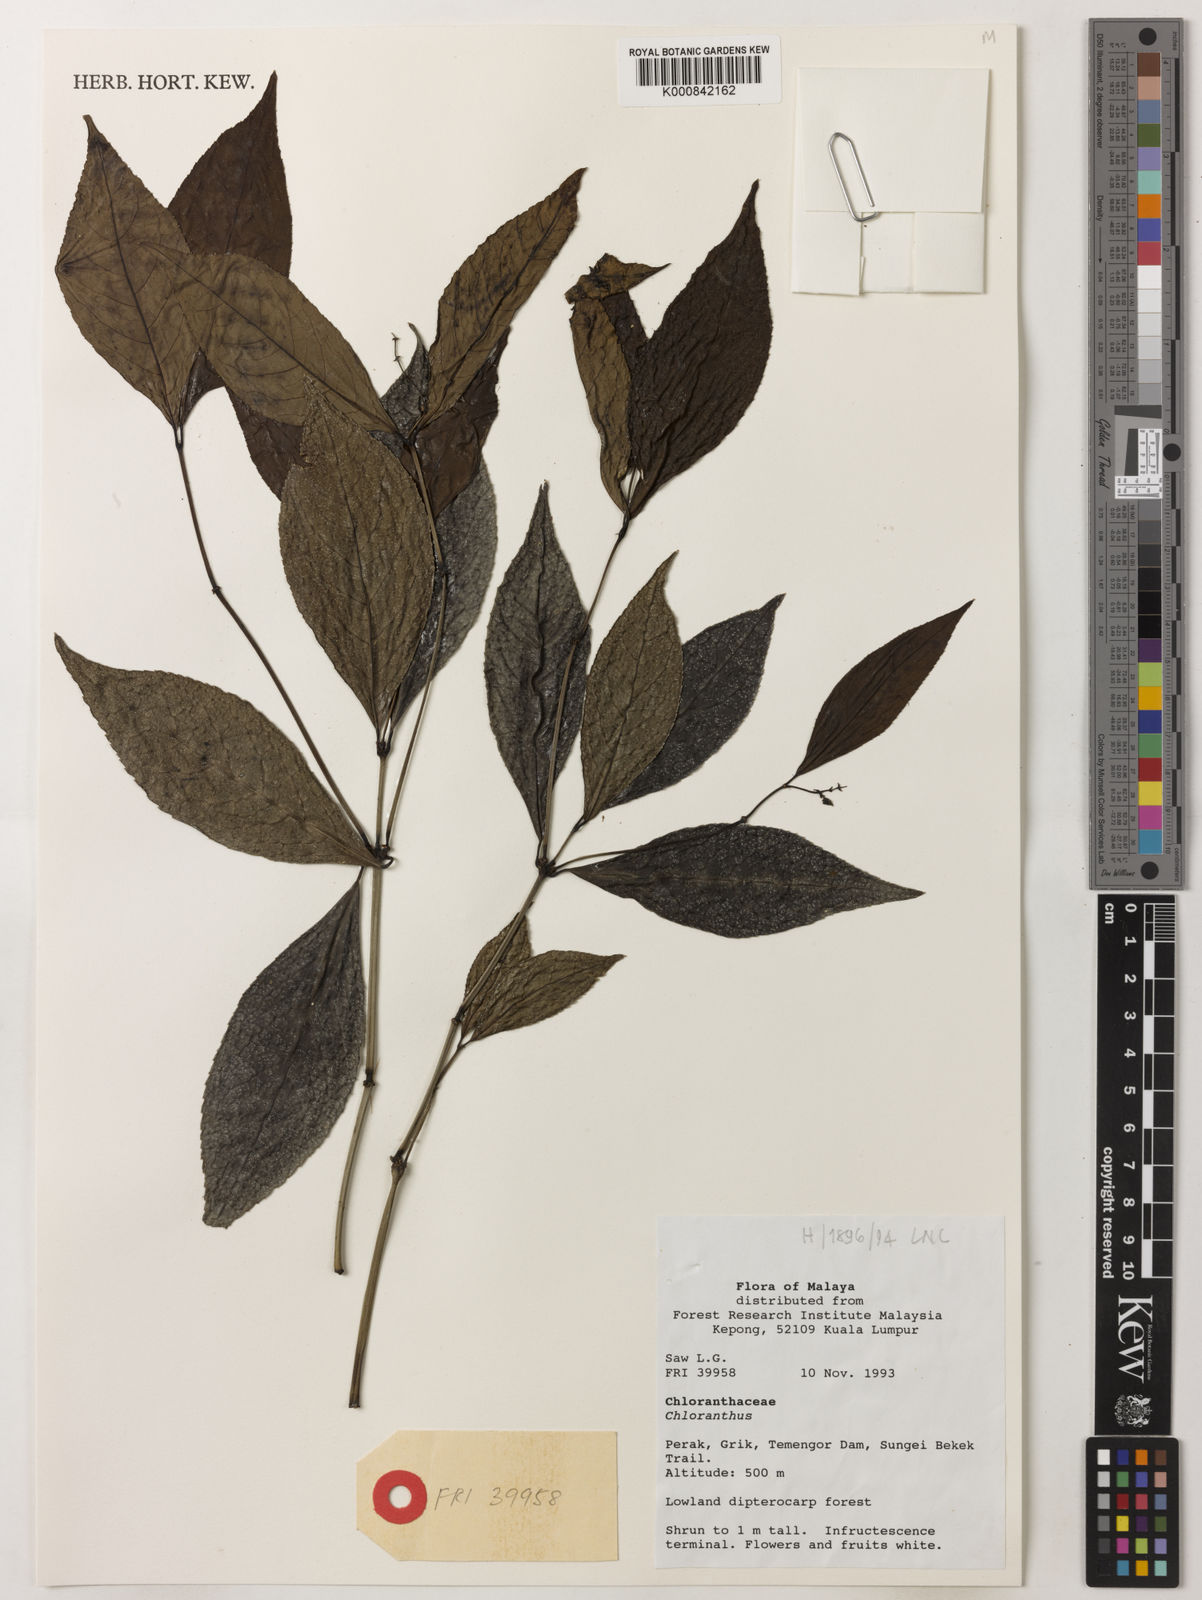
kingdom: Plantae
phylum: Tracheophyta
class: Magnoliopsida
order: Chloranthales
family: Chloranthaceae
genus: Chloranthus
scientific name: Chloranthus
